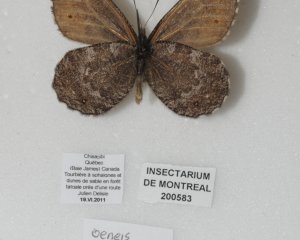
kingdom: Animalia
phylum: Arthropoda
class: Insecta
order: Lepidoptera
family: Nymphalidae
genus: Oeneis
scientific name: Oeneis jutta
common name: Jutta Arctic
